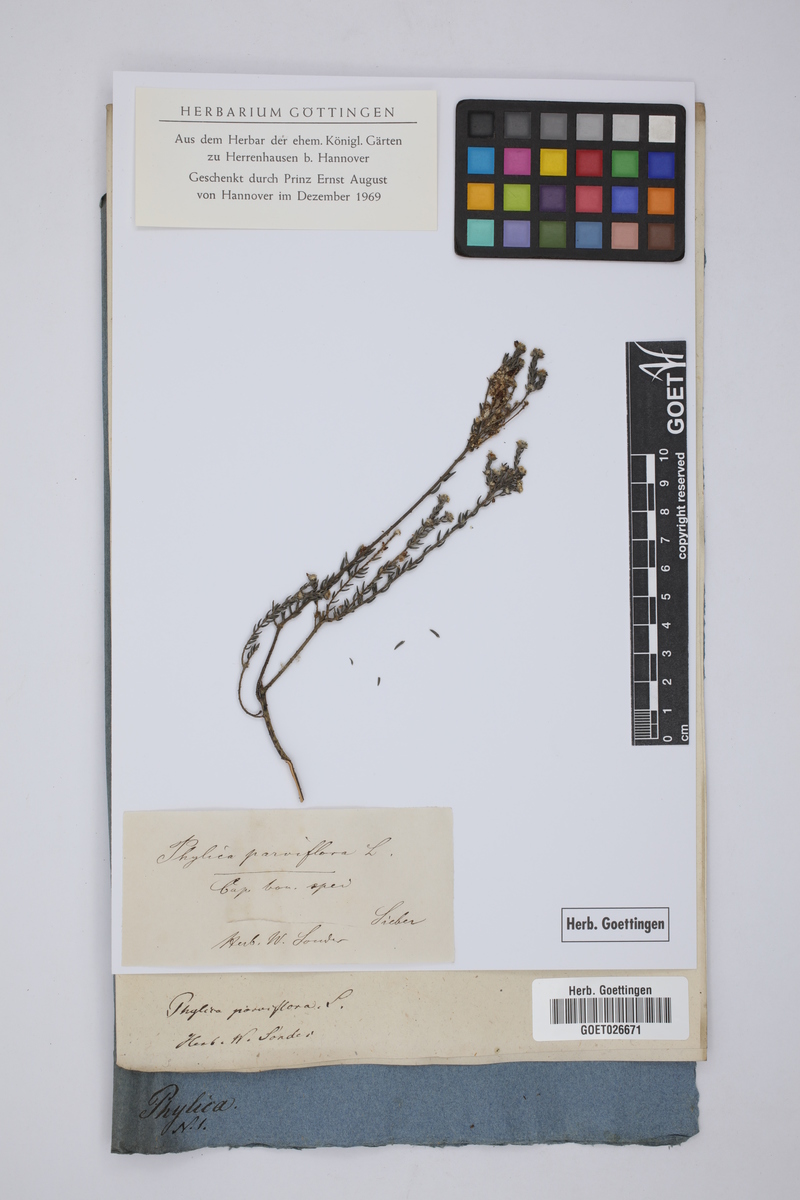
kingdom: Plantae
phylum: Tracheophyta
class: Magnoliopsida
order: Rosales
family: Rhamnaceae
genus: Phylica
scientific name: Phylica parviflora
